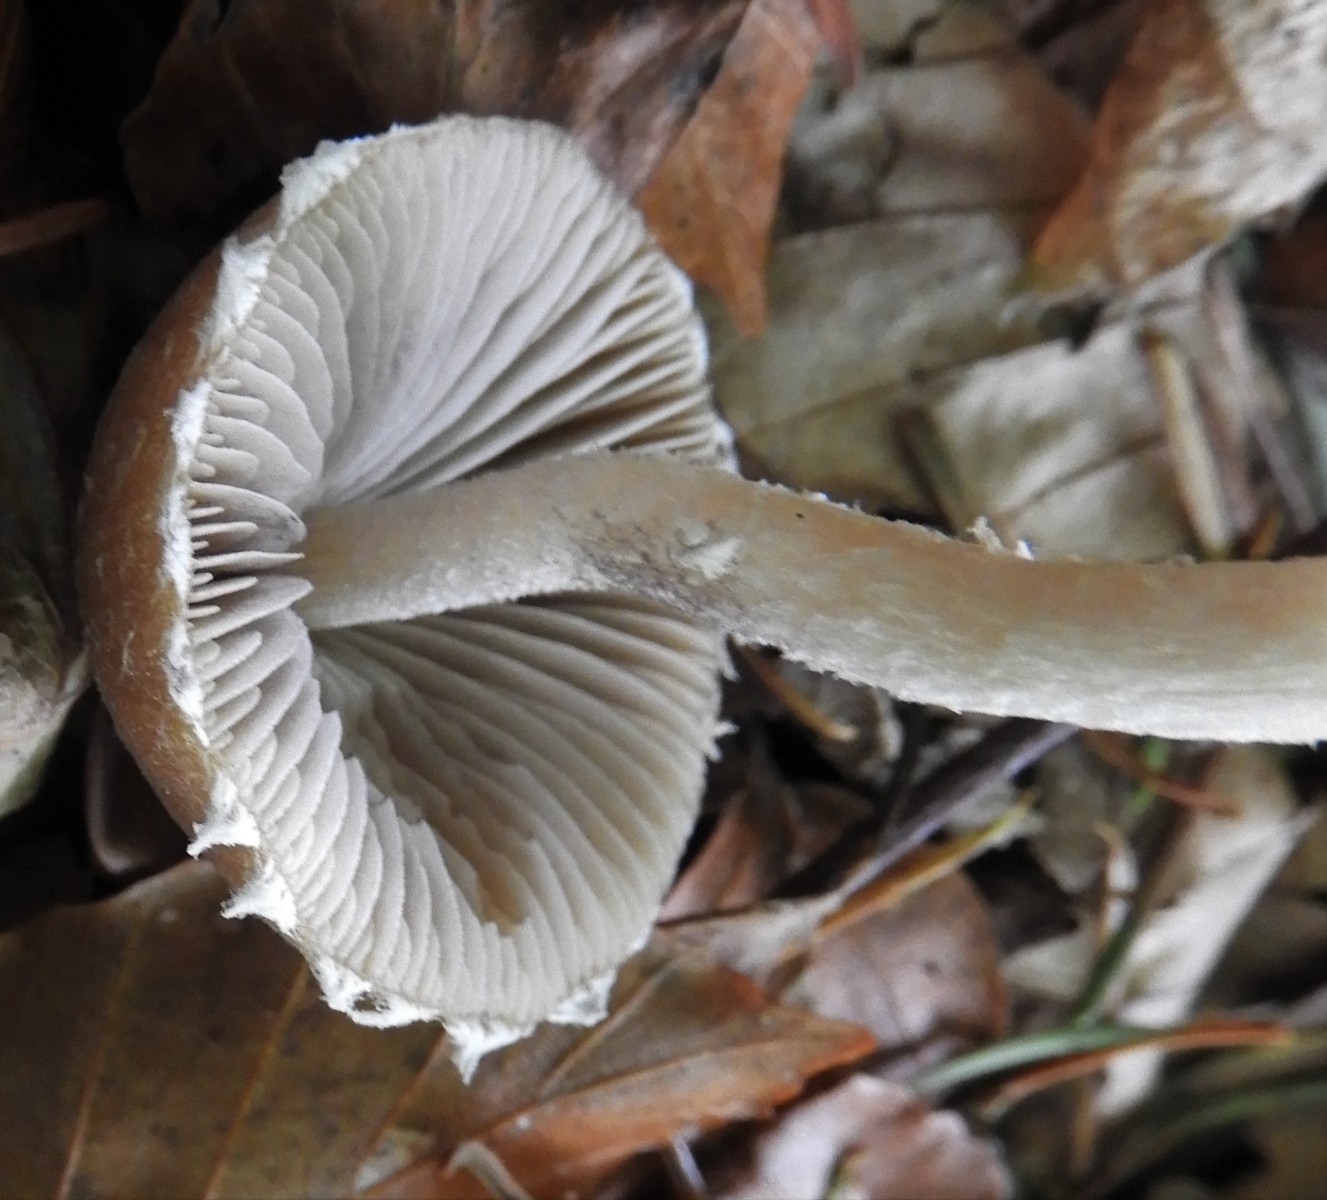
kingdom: Fungi
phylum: Basidiomycota
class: Agaricomycetes
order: Agaricales
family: Psathyrellaceae
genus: Psathyrella
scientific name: Psathyrella
